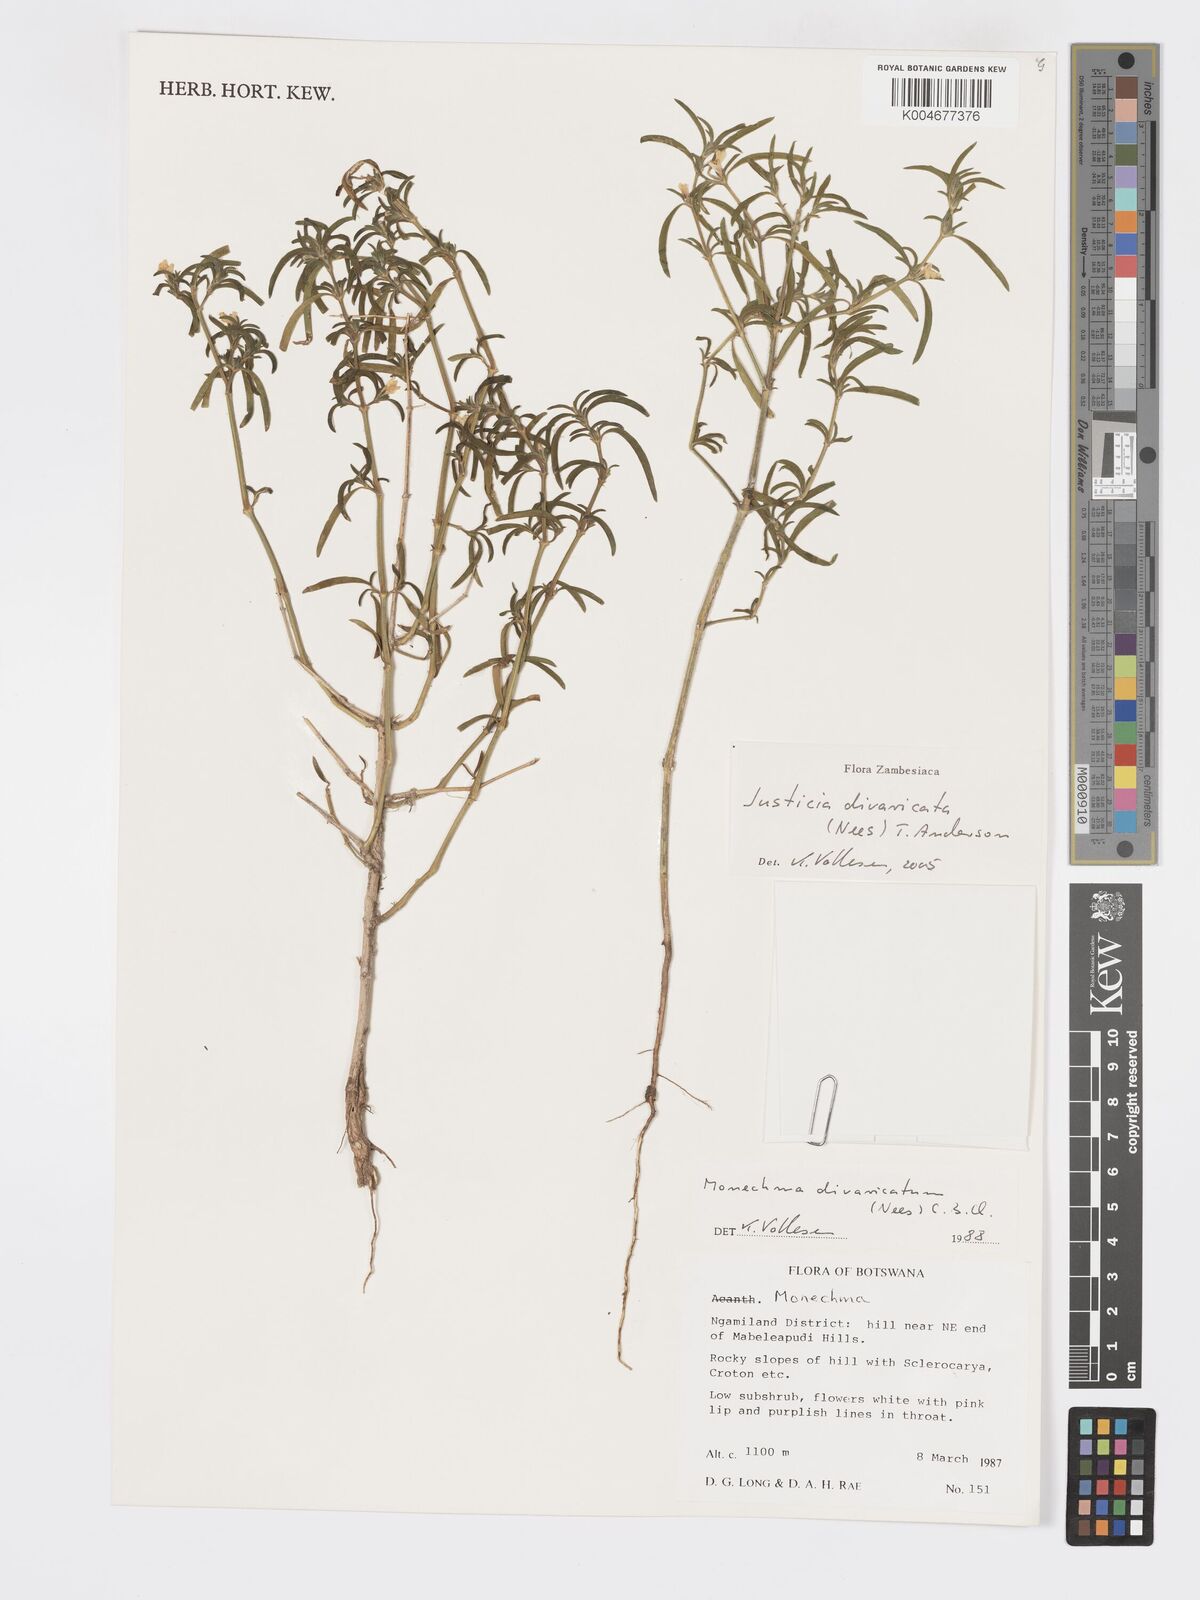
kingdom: Plantae
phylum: Tracheophyta
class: Magnoliopsida
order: Lamiales
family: Acanthaceae
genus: Pogonospermum
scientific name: Pogonospermum
